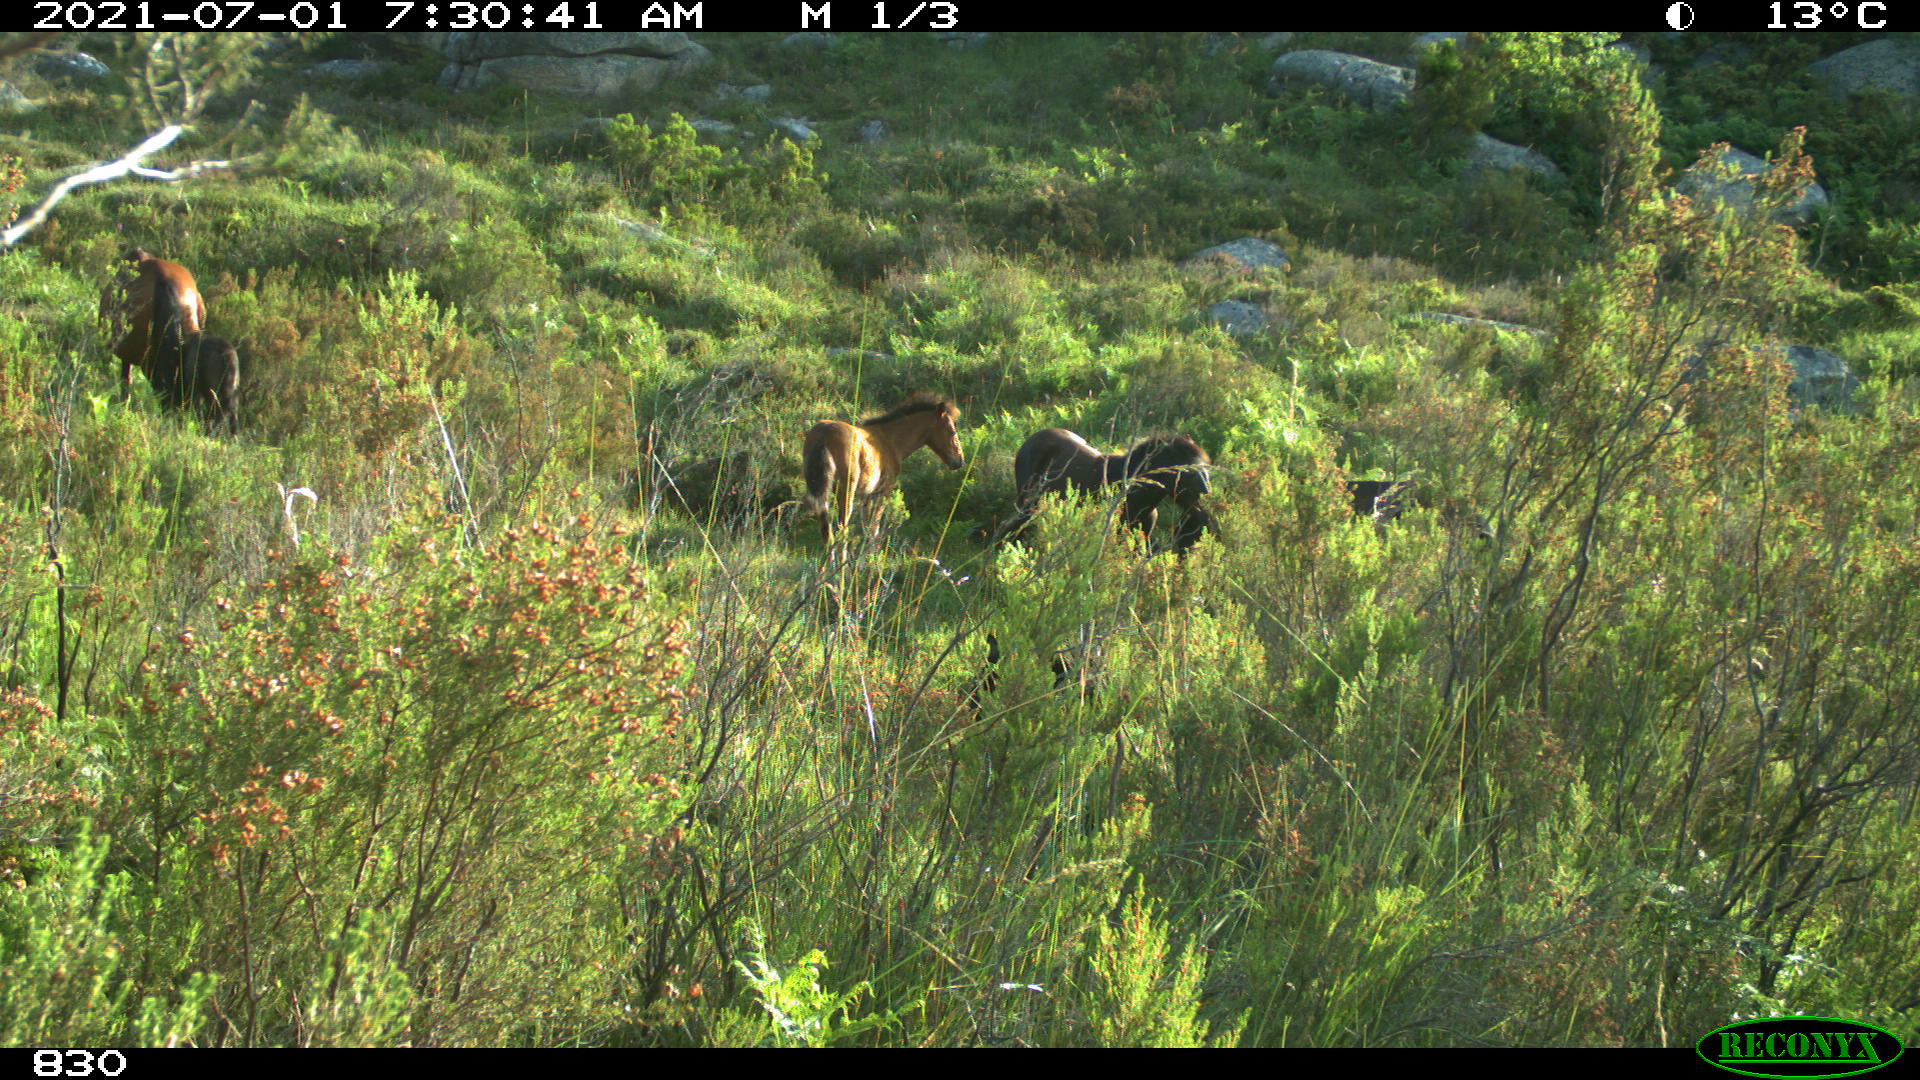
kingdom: Animalia
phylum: Chordata
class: Mammalia
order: Perissodactyla
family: Equidae
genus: Equus
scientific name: Equus caballus
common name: Horse
